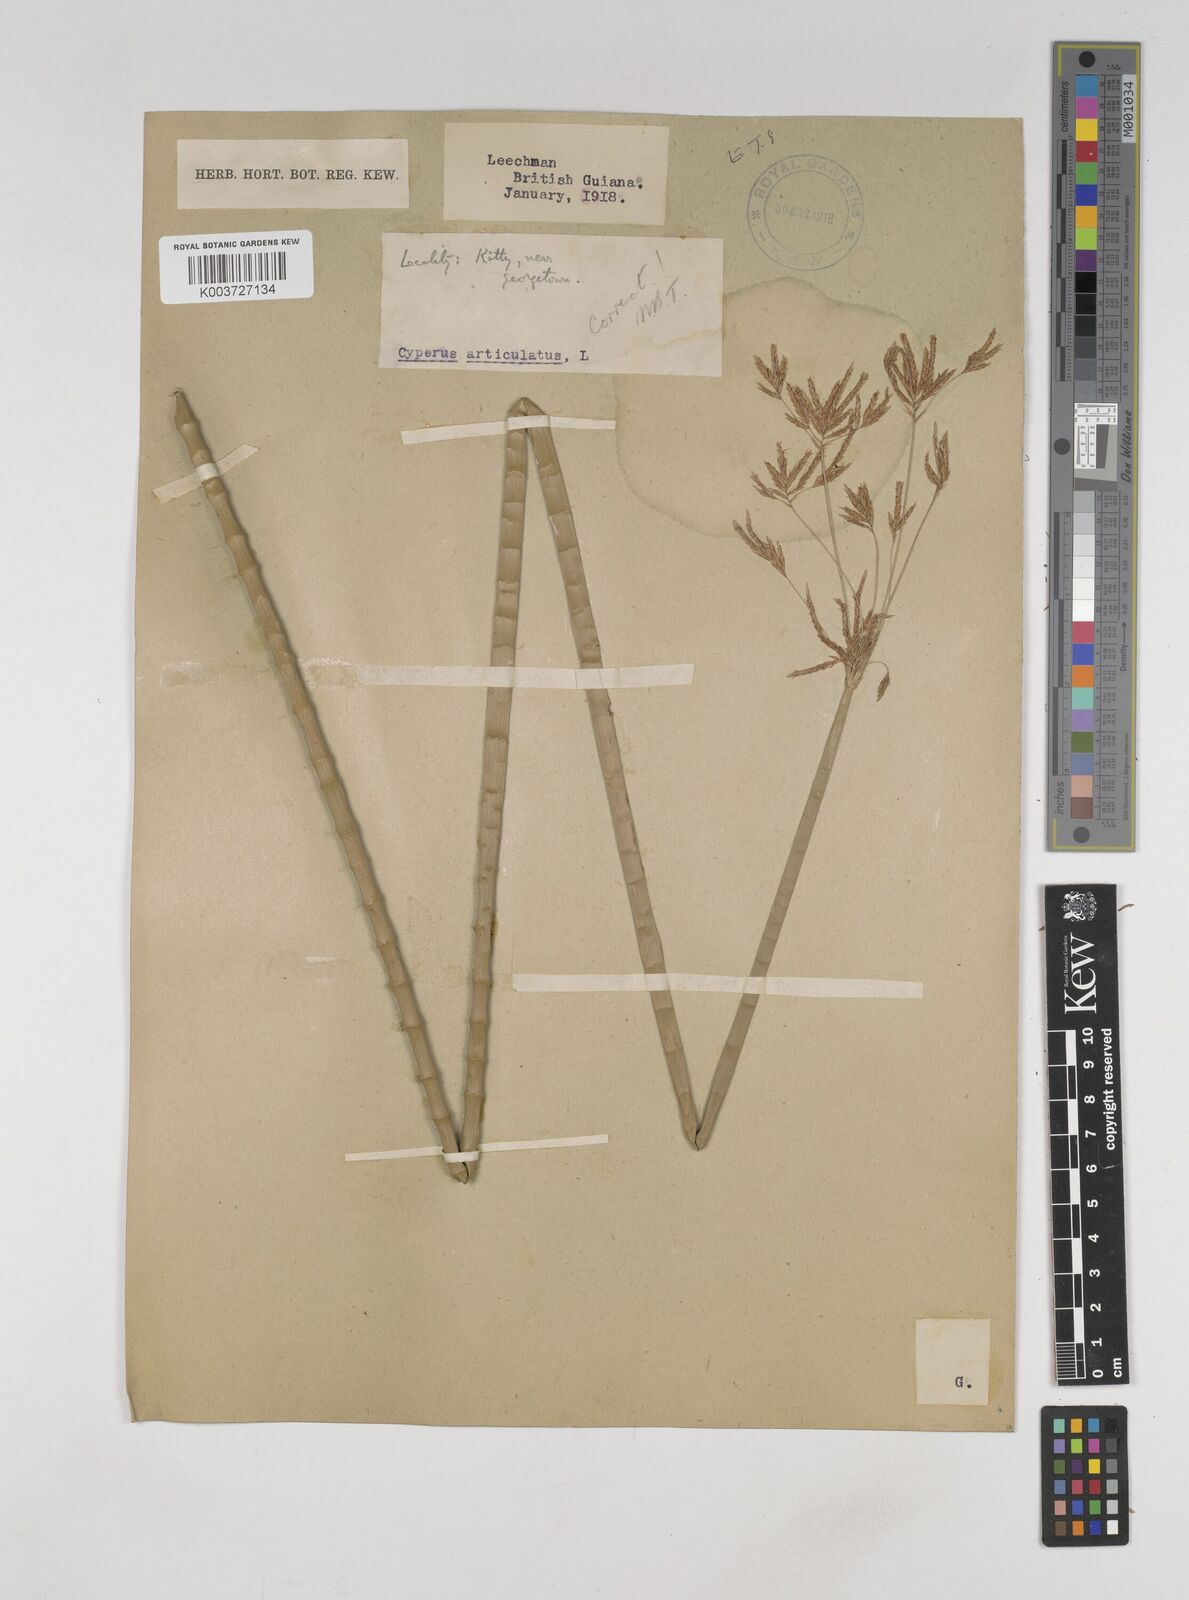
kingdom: Plantae
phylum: Tracheophyta
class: Liliopsida
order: Poales
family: Cyperaceae
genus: Cyperus
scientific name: Cyperus articulatus
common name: Jointed flatsedge
